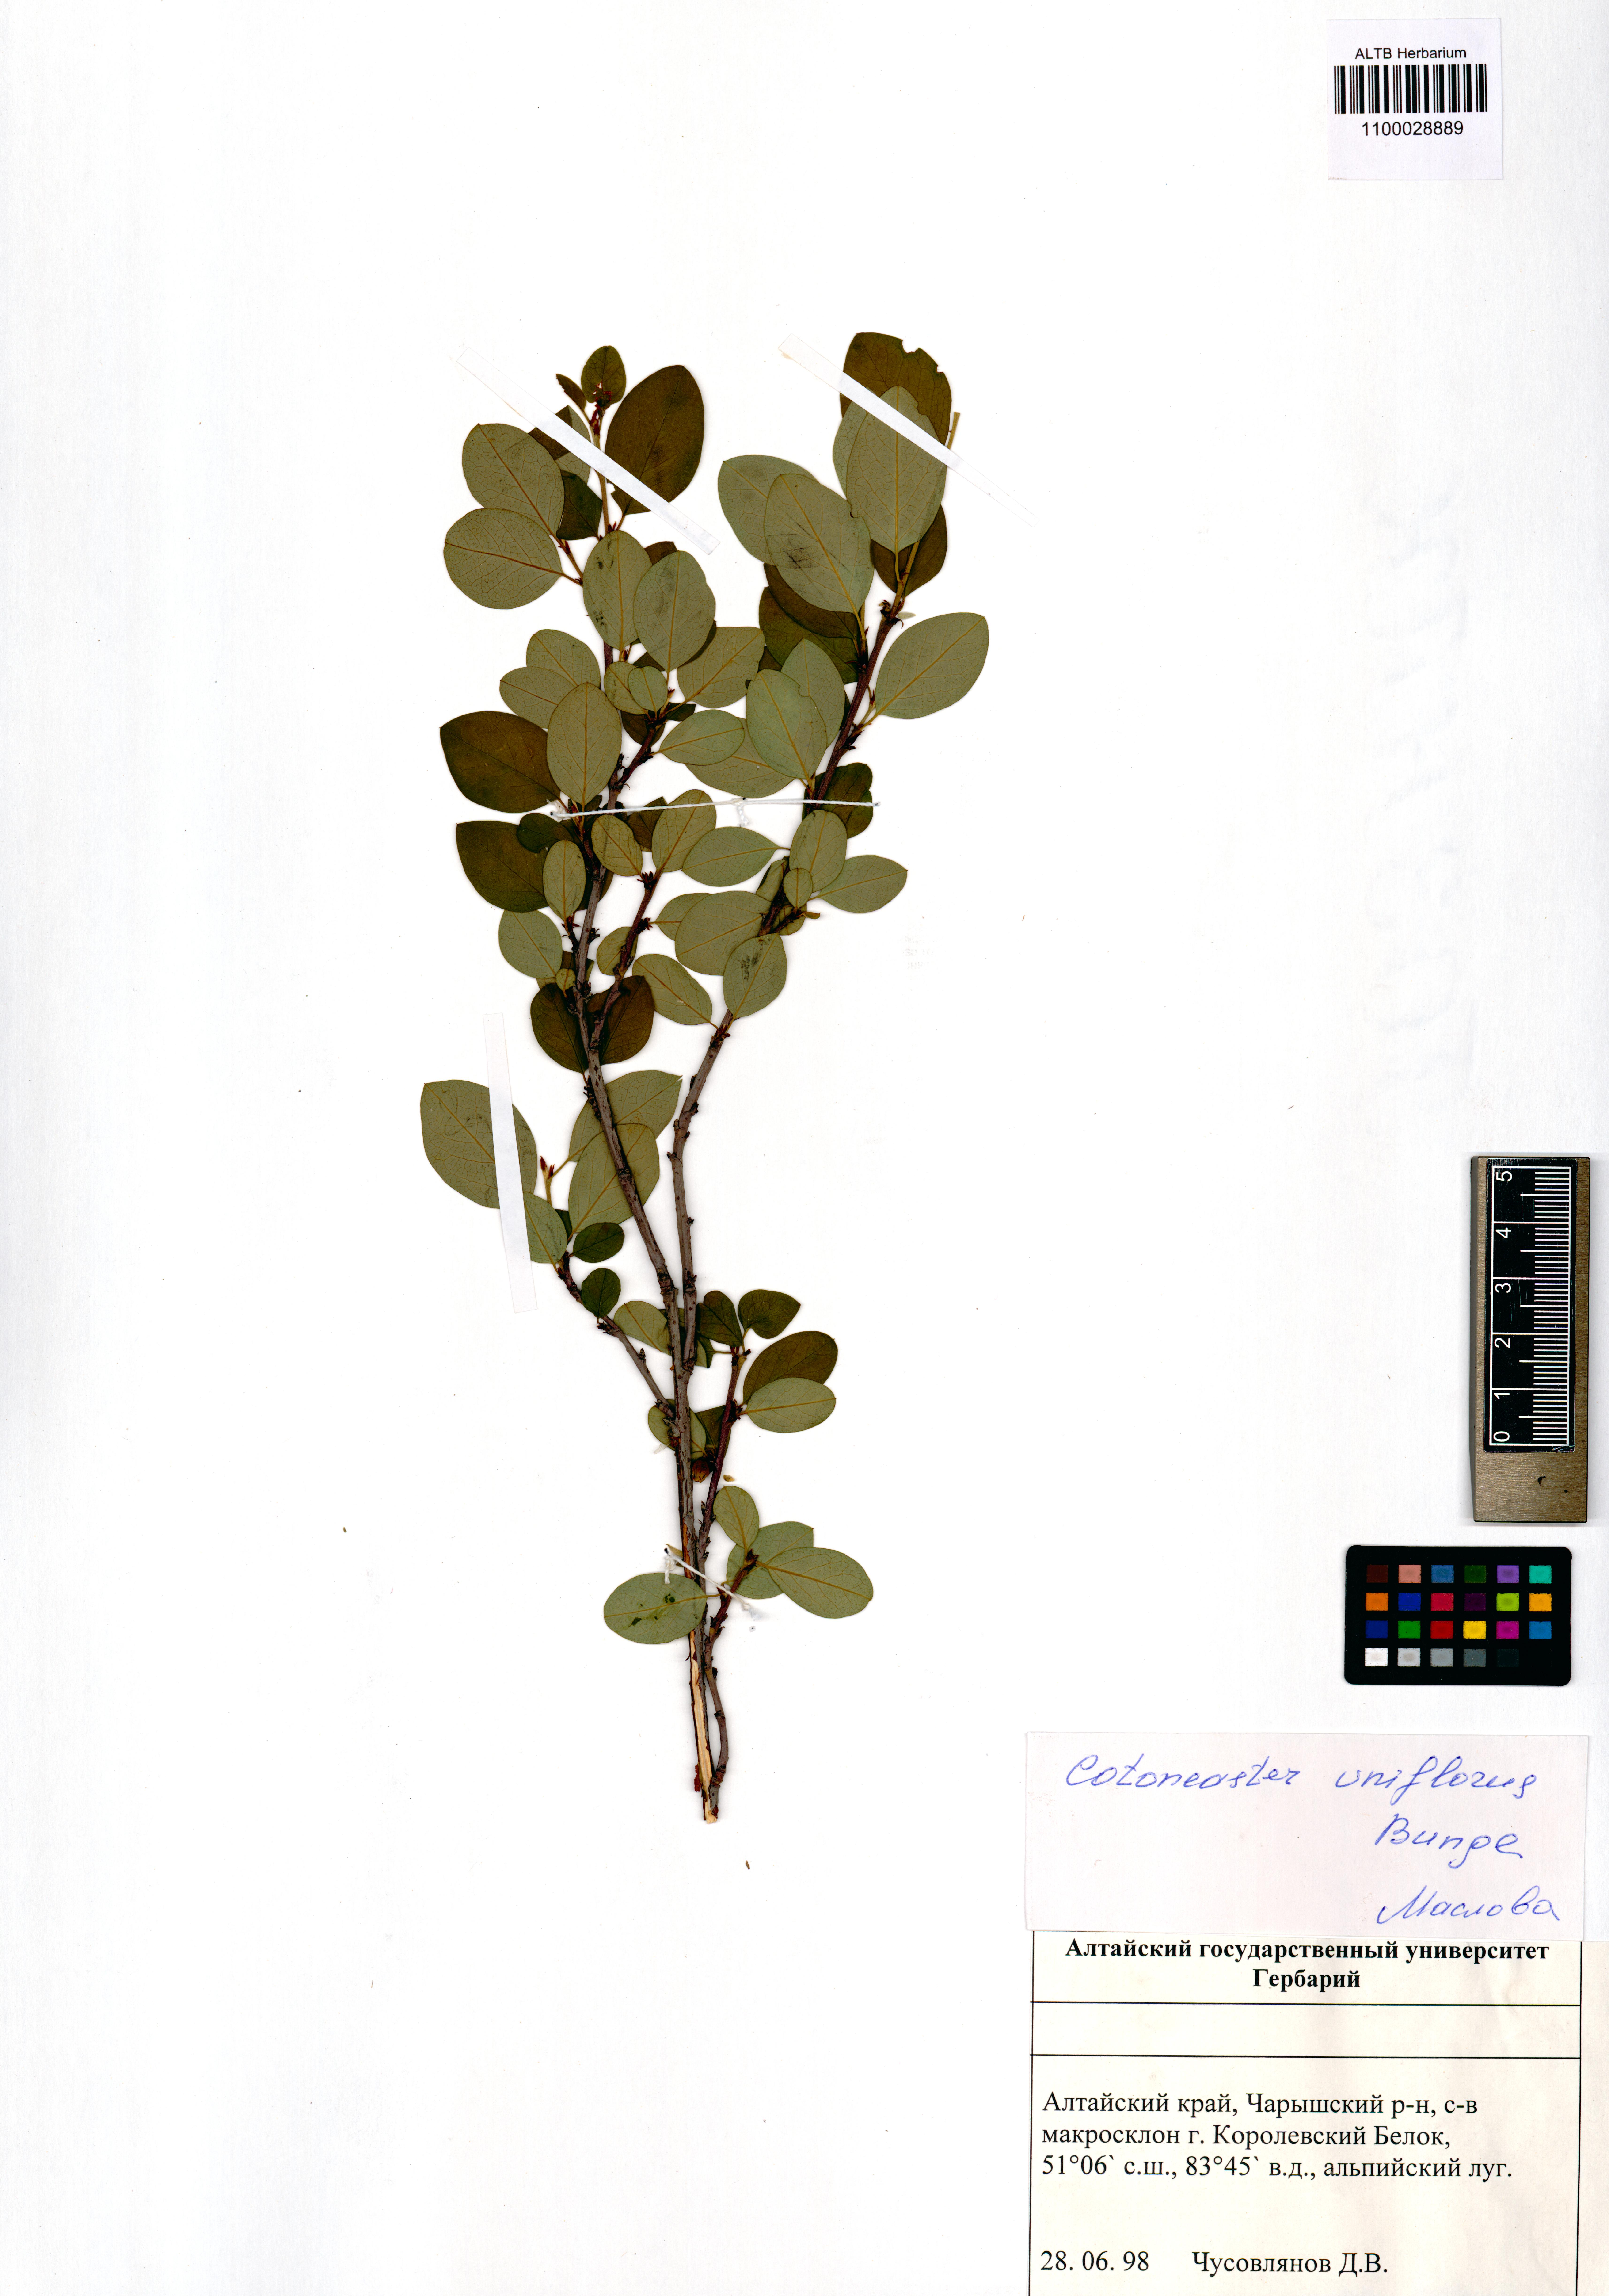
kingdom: Plantae
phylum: Tracheophyta
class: Magnoliopsida
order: Rosales
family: Rosaceae
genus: Cotoneaster
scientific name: Cotoneaster uniflorus
